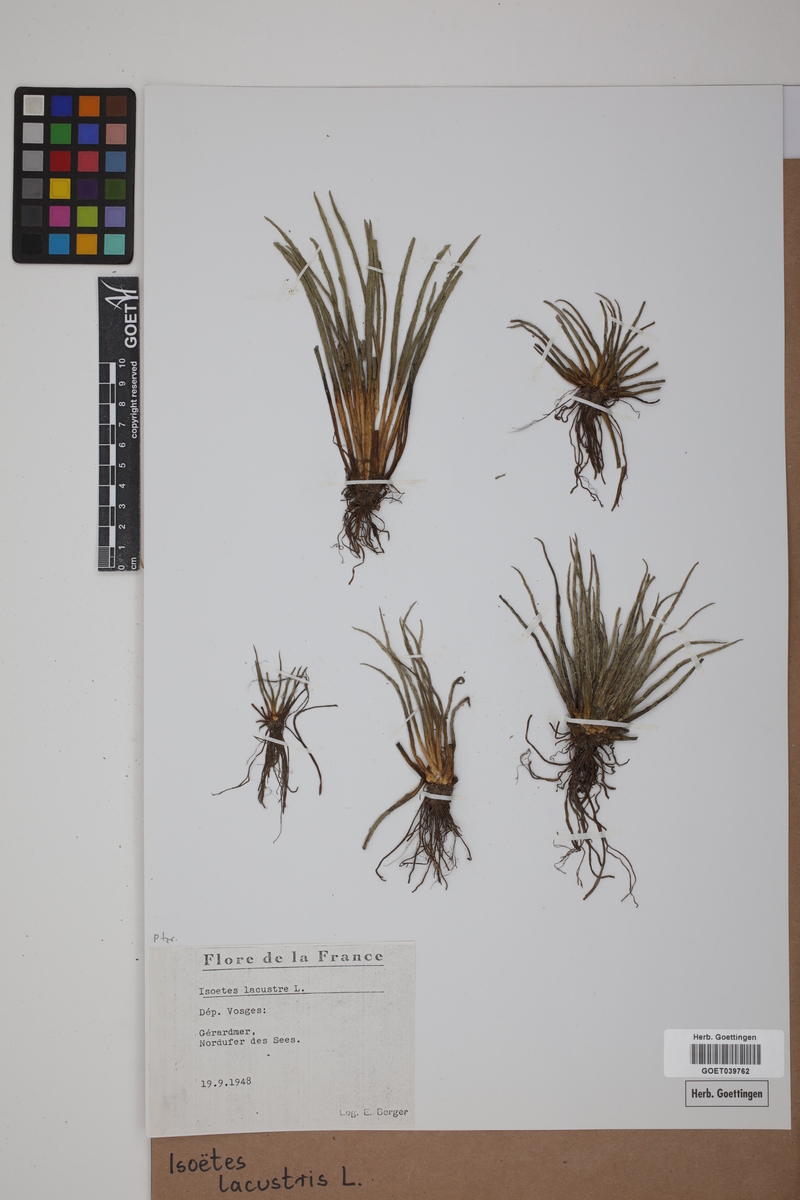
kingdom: Plantae
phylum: Tracheophyta
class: Lycopodiopsida
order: Isoetales
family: Isoetaceae
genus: Isoetes
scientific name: Isoetes lacustris
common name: Common quillwort
